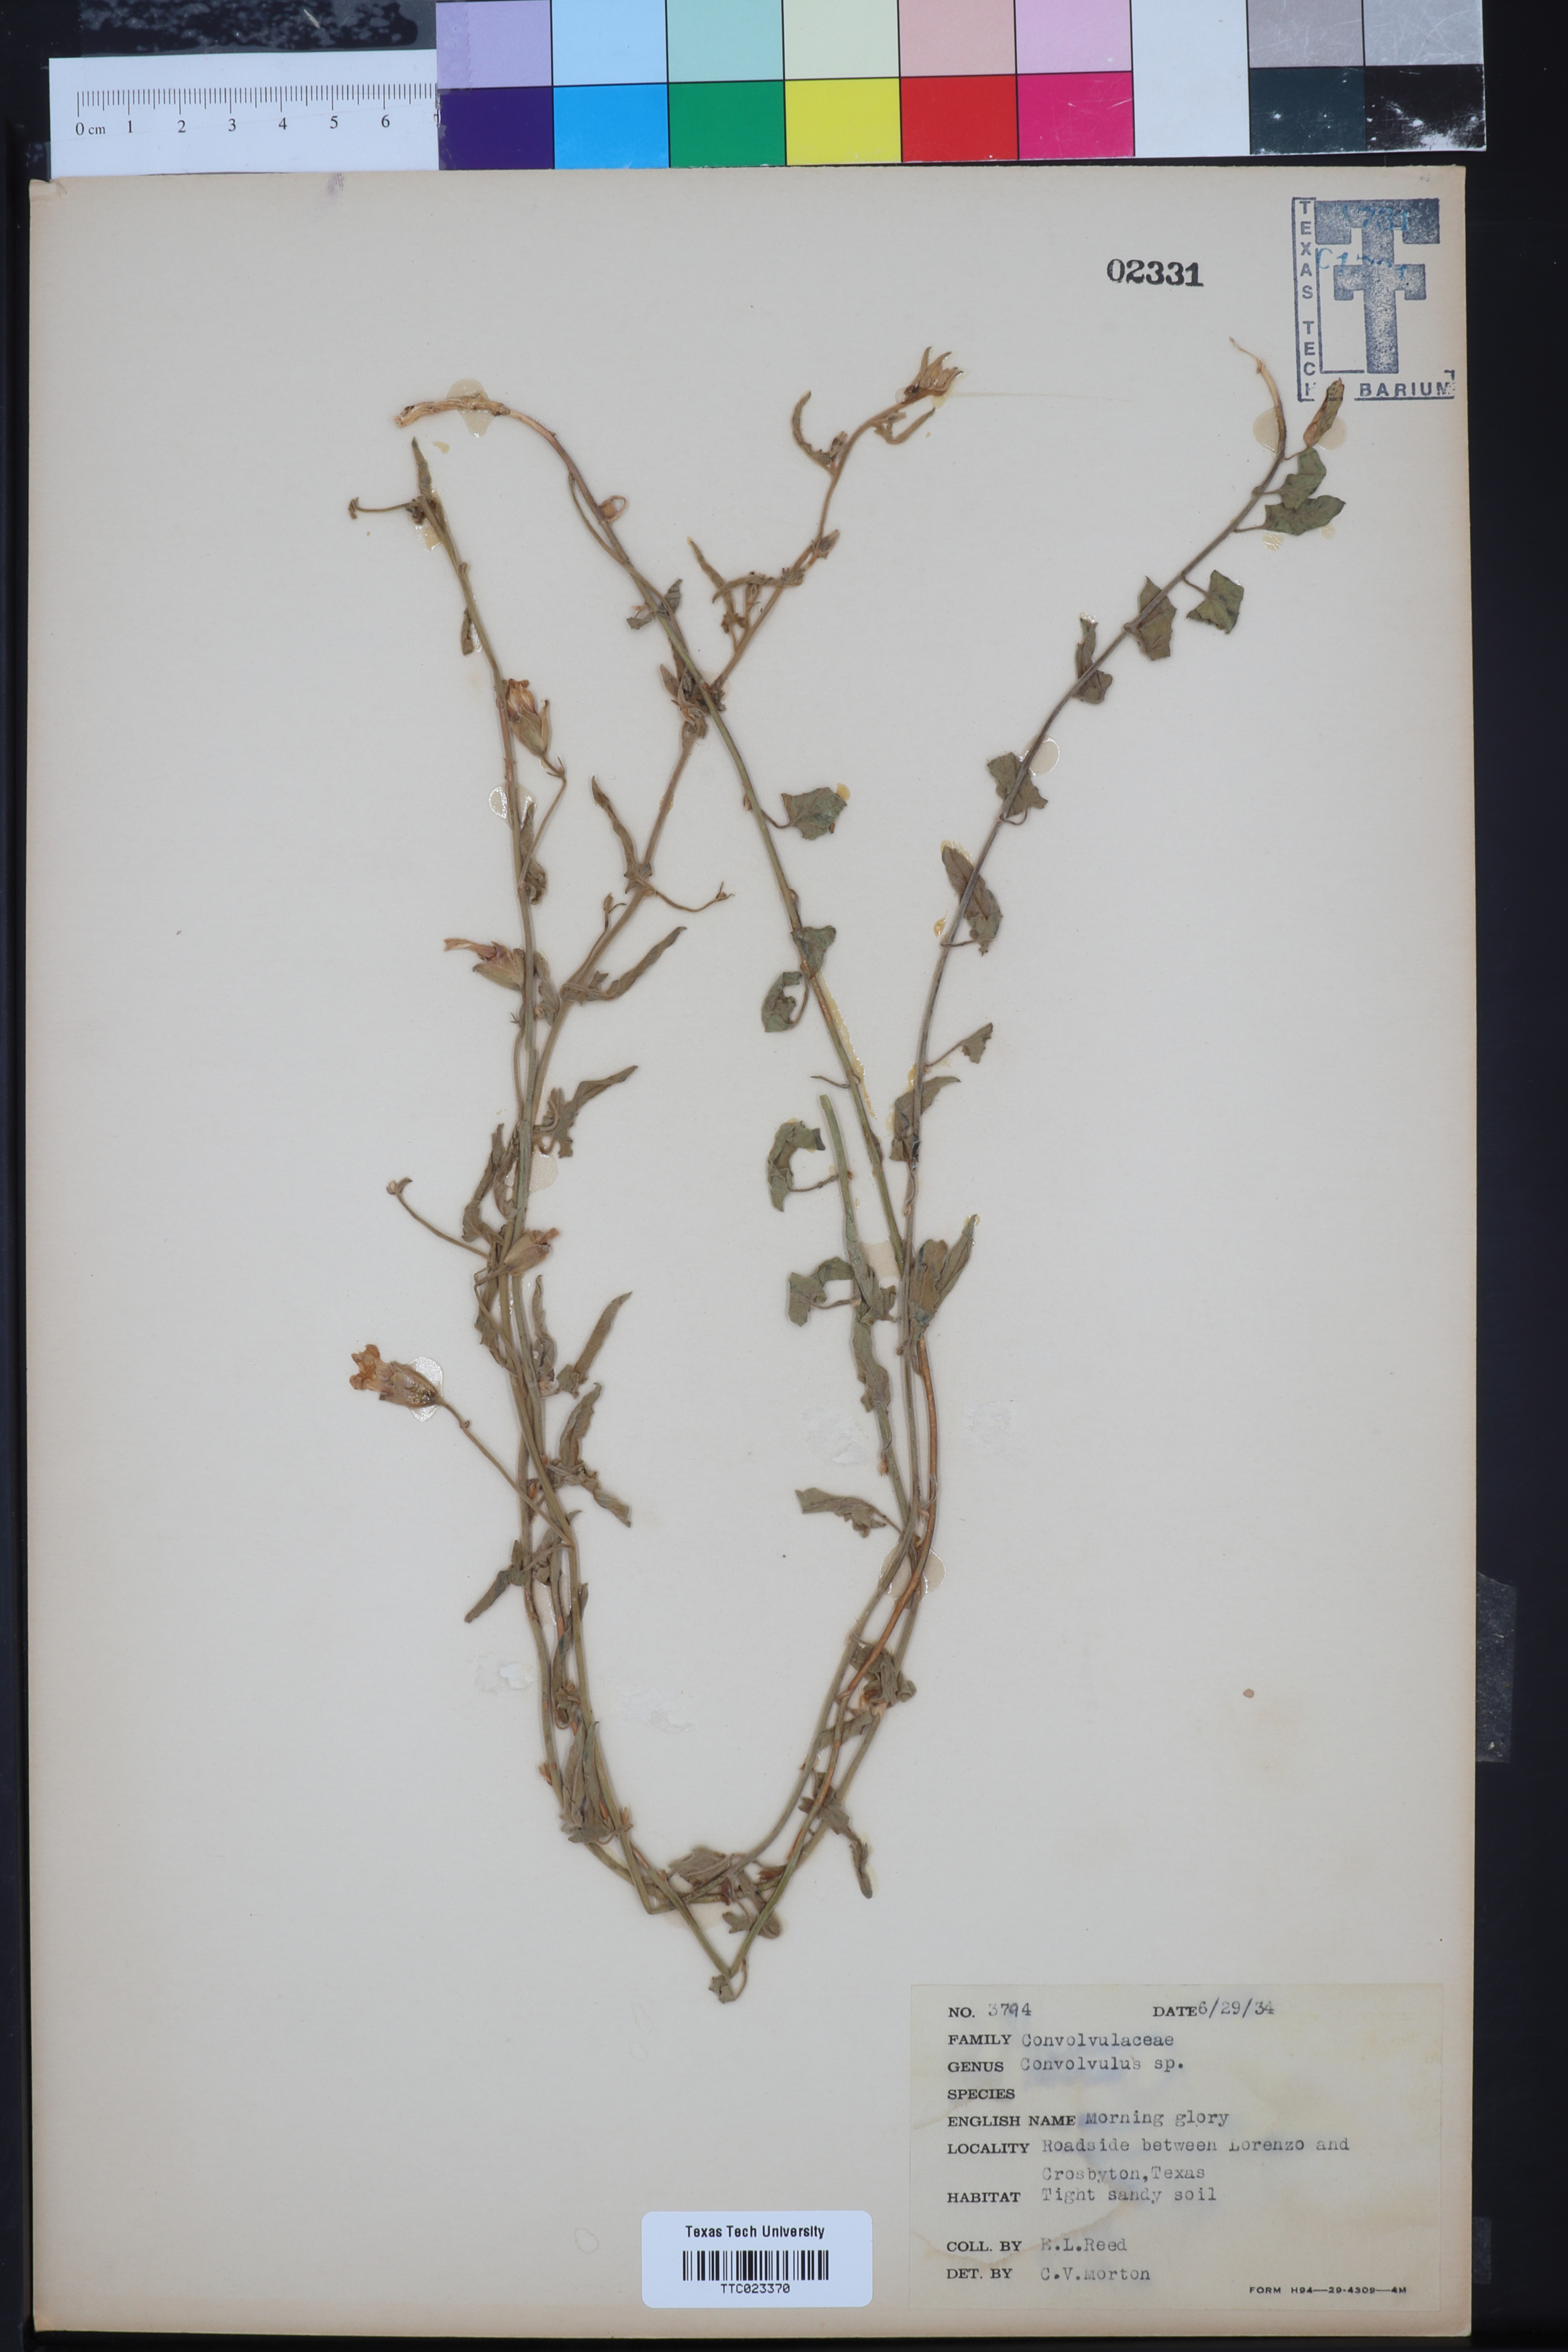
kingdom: Plantae
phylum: Tracheophyta
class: Magnoliopsida
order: Solanales
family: Convolvulaceae
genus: Convolvulus
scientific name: Convolvulus
